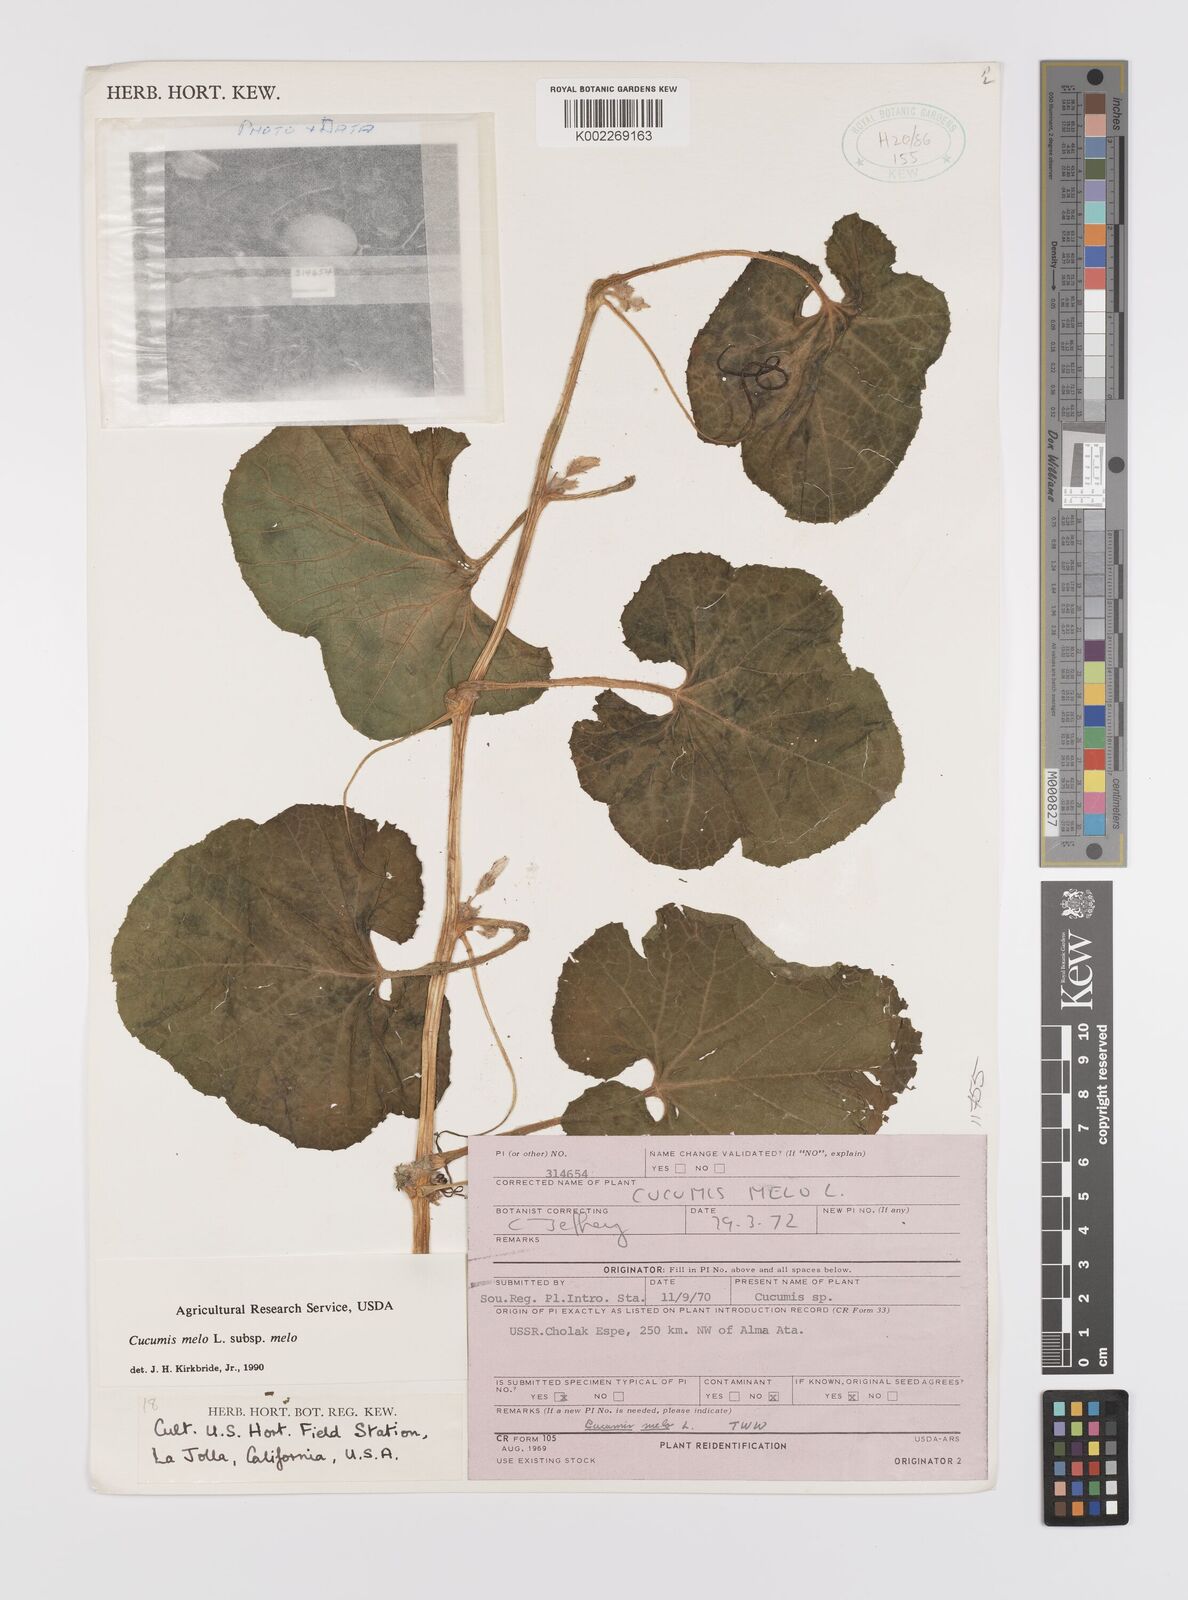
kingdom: Plantae
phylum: Tracheophyta
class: Magnoliopsida
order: Cucurbitales
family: Cucurbitaceae
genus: Cucumis
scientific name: Cucumis melo
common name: Melon
